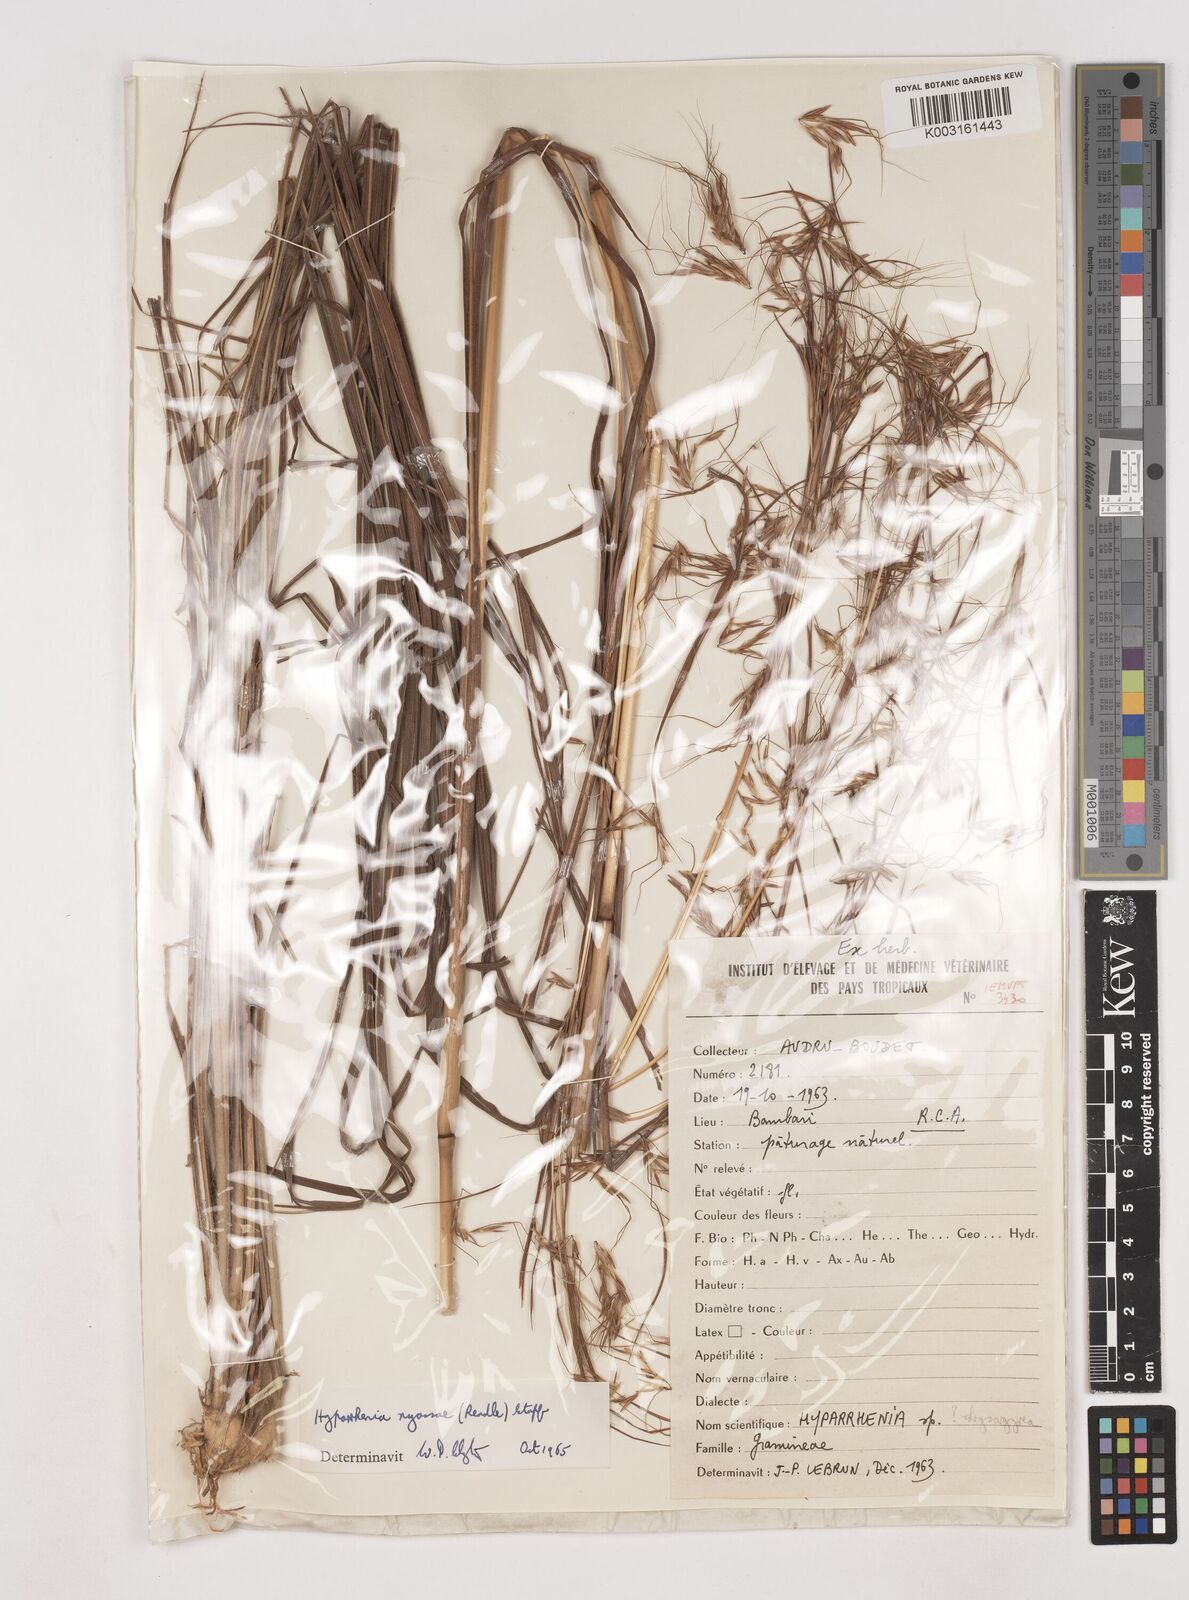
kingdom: Plantae
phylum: Tracheophyta
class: Liliopsida
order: Poales
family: Poaceae
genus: Hyparrhenia
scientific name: Hyparrhenia nyassae
